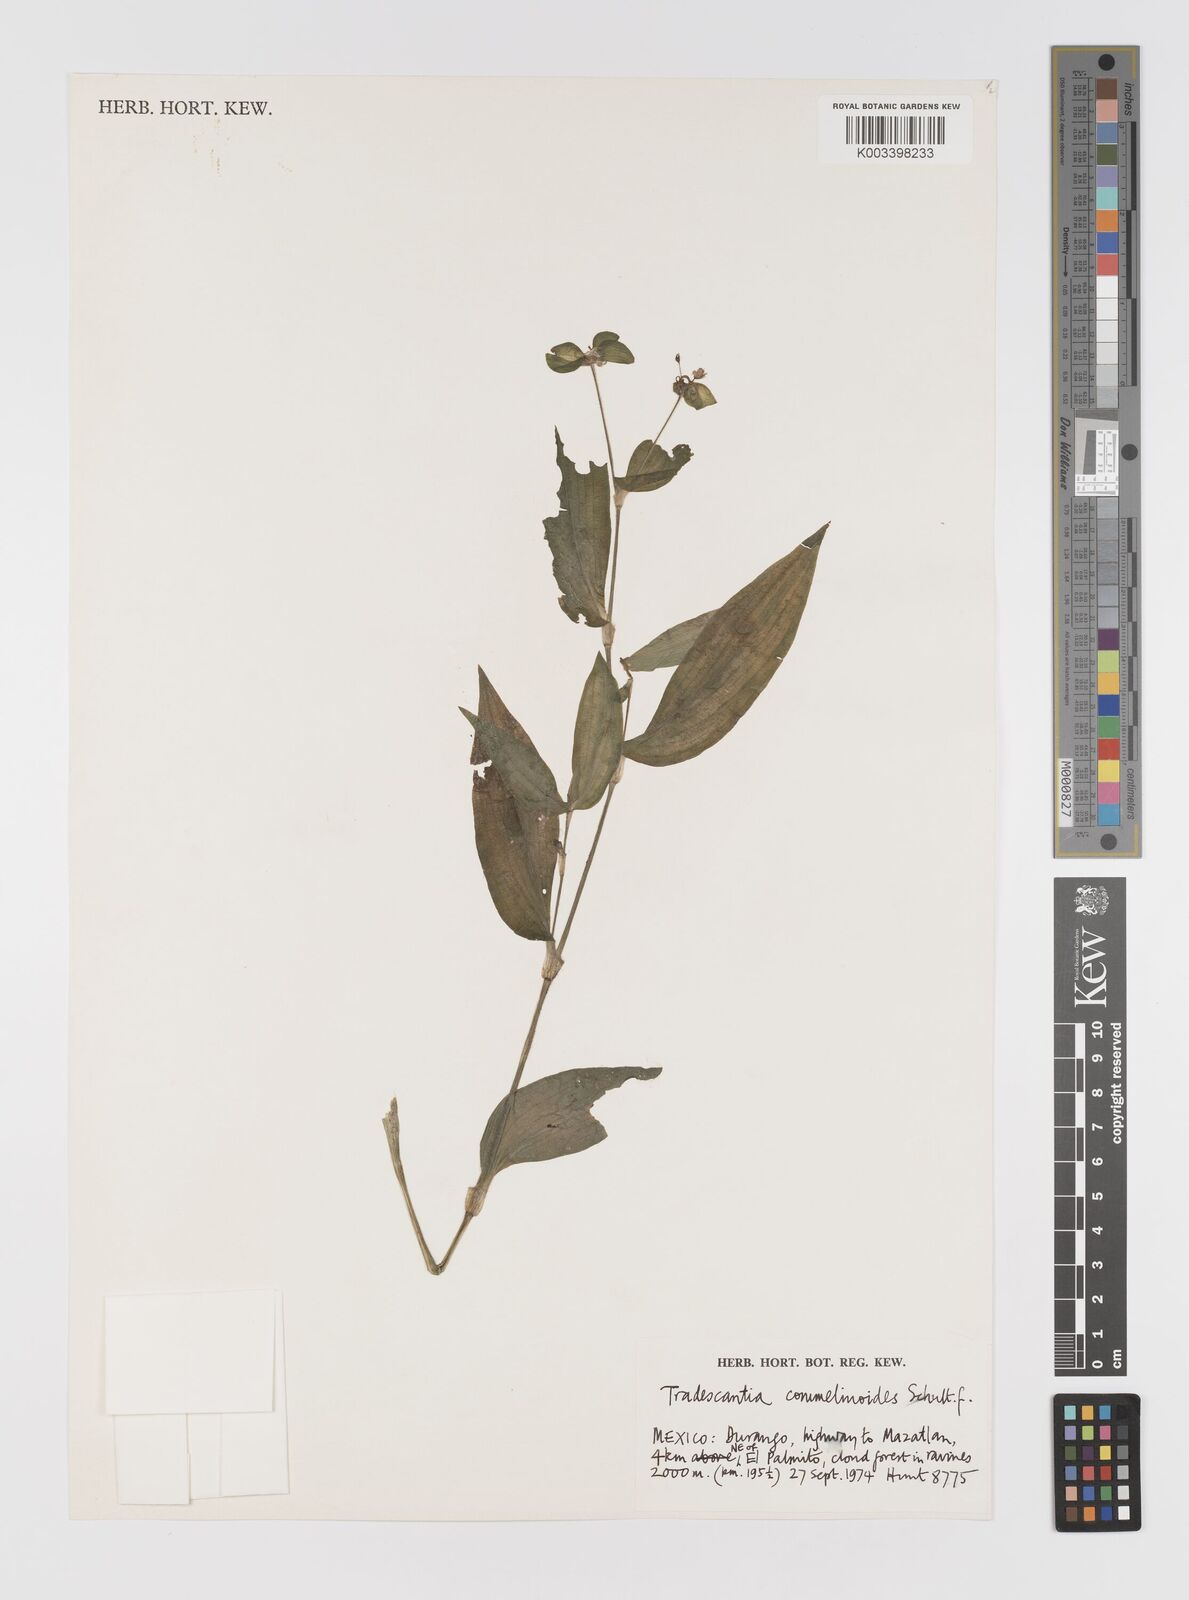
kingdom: Plantae
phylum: Tracheophyta
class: Liliopsida
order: Commelinales
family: Commelinaceae
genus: Tradescantia
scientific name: Tradescantia commelinoides
